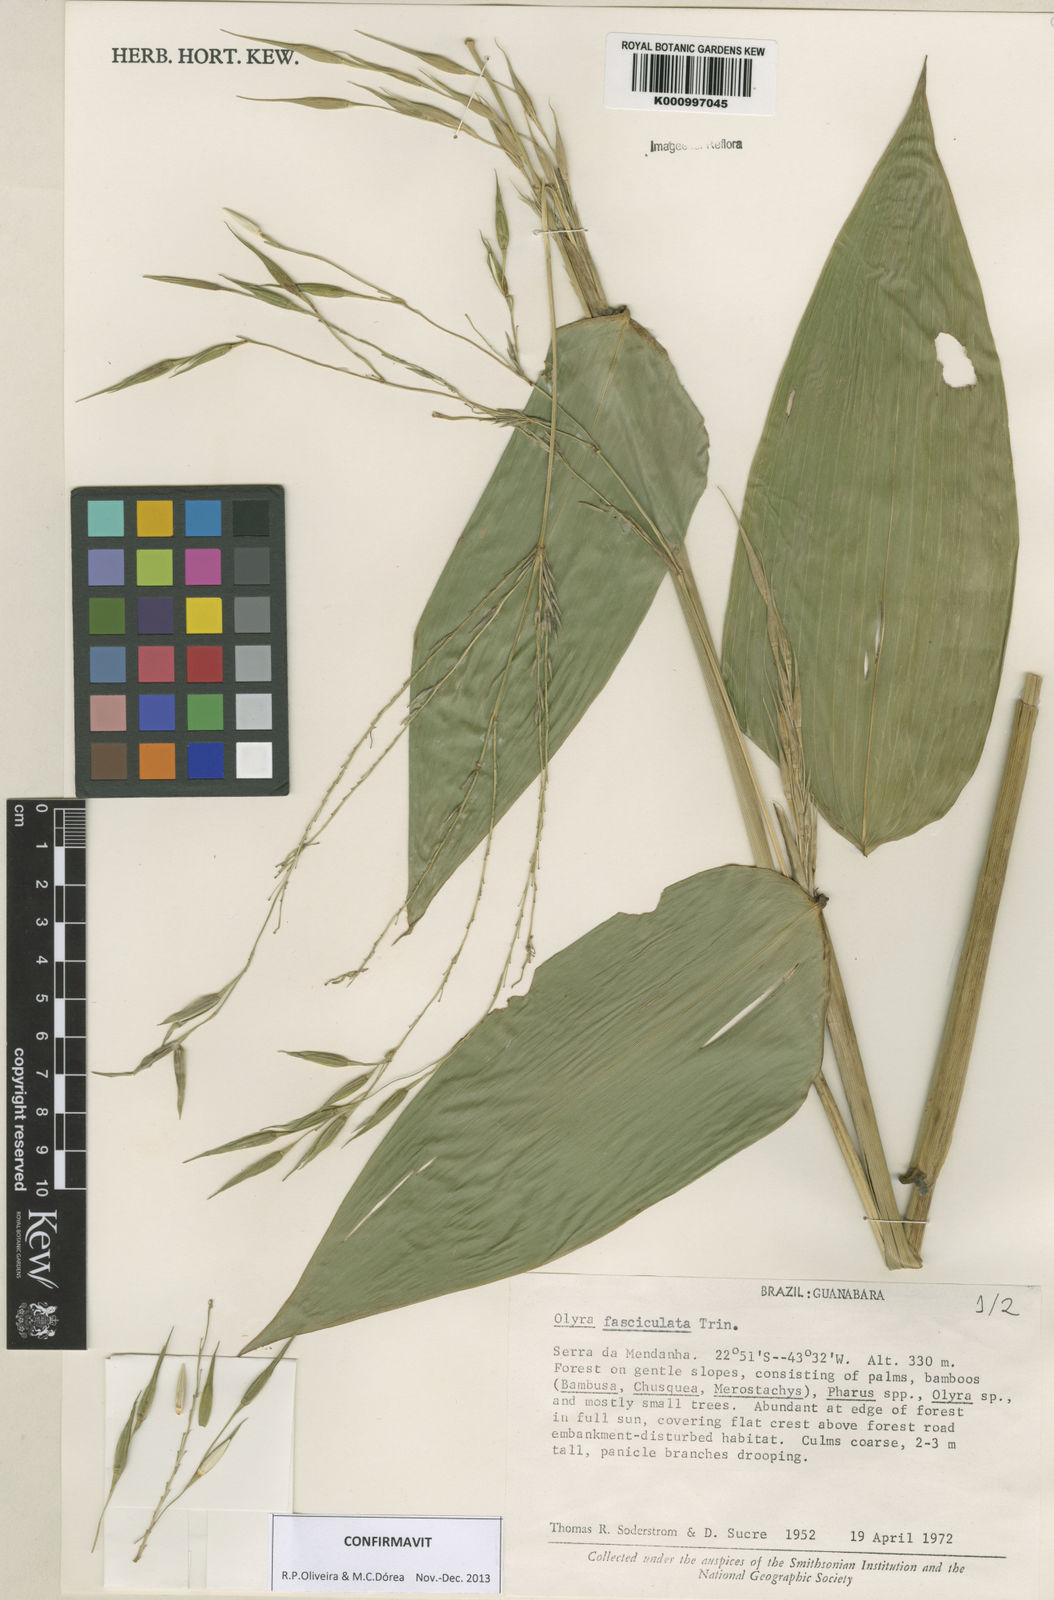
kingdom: Plantae
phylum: Tracheophyta
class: Liliopsida
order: Poales
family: Poaceae
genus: Olyra
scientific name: Olyra fasciculata
